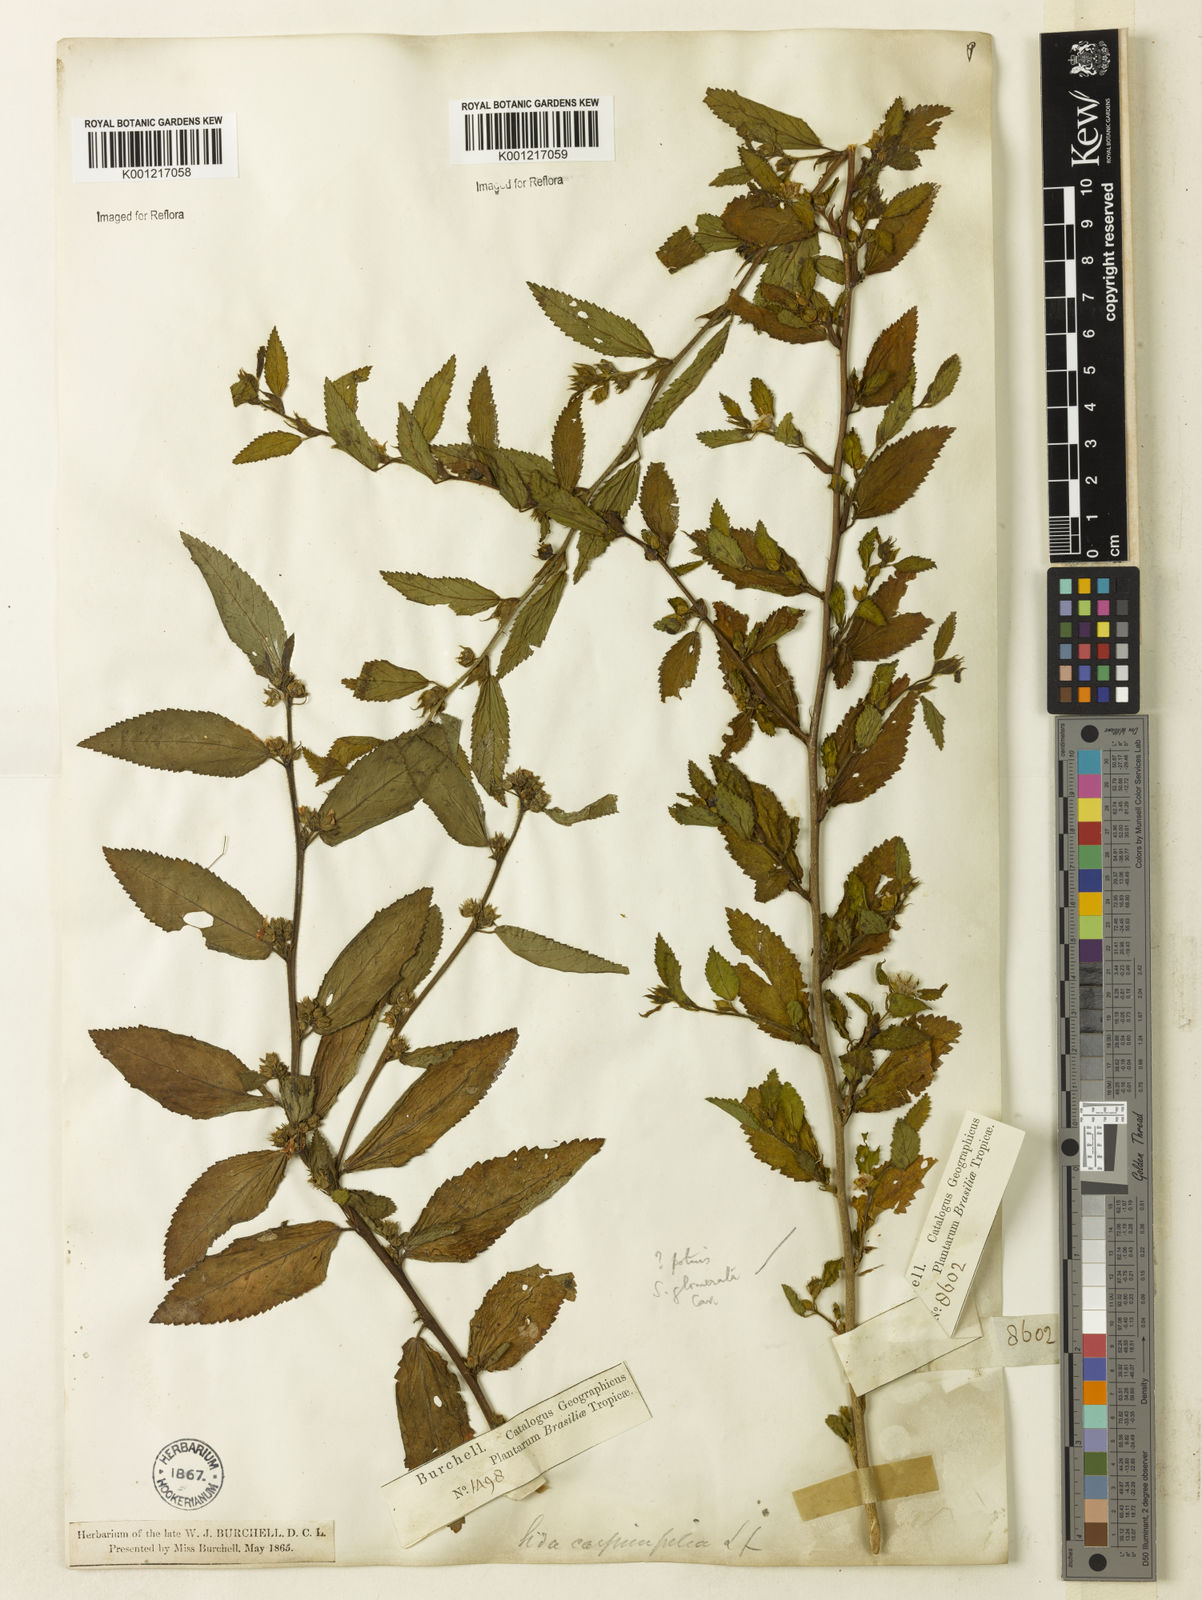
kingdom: Plantae
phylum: Tracheophyta
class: Magnoliopsida
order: Malvales
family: Malvaceae
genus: Sida
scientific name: Sida planicaulis
